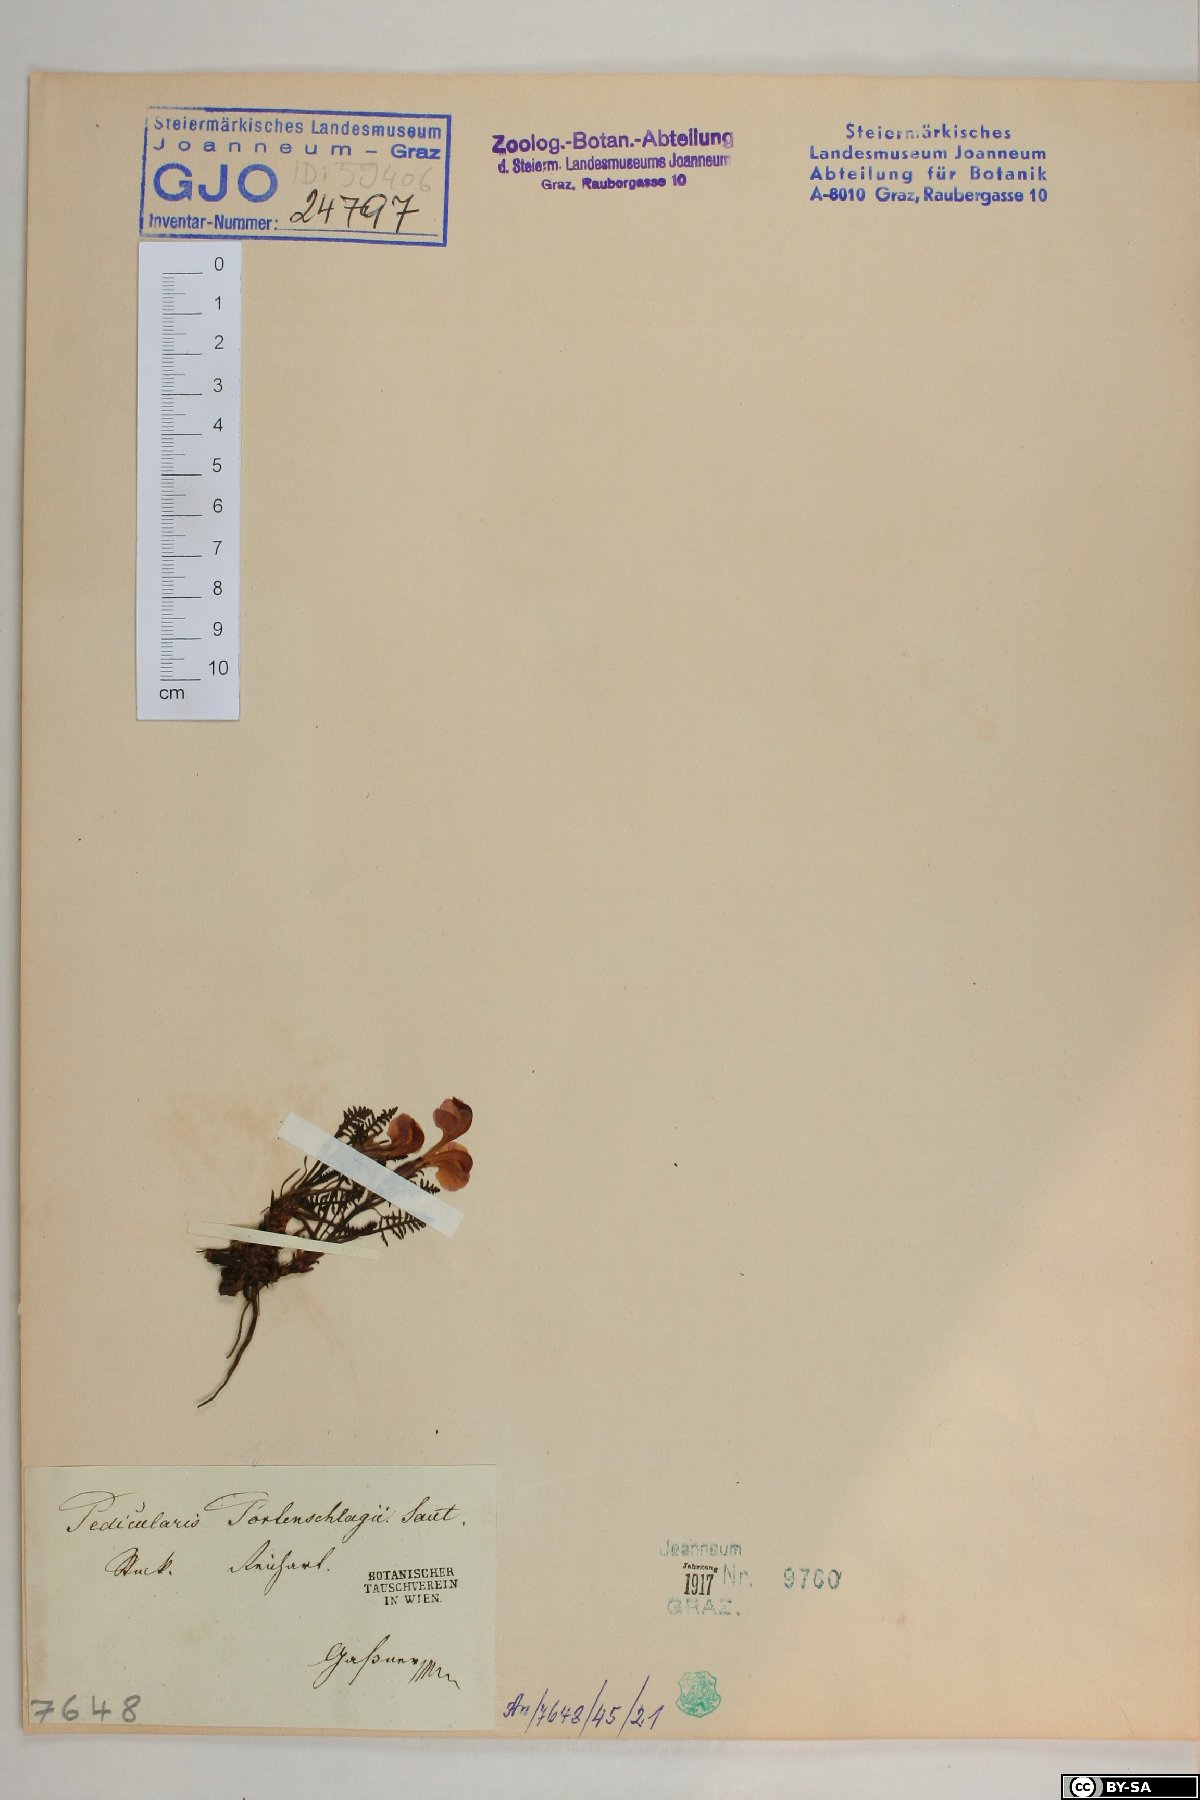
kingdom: Plantae
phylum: Tracheophyta
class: Magnoliopsida
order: Lamiales
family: Orobanchaceae
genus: Pedicularis
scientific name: Pedicularis portenschlagii
